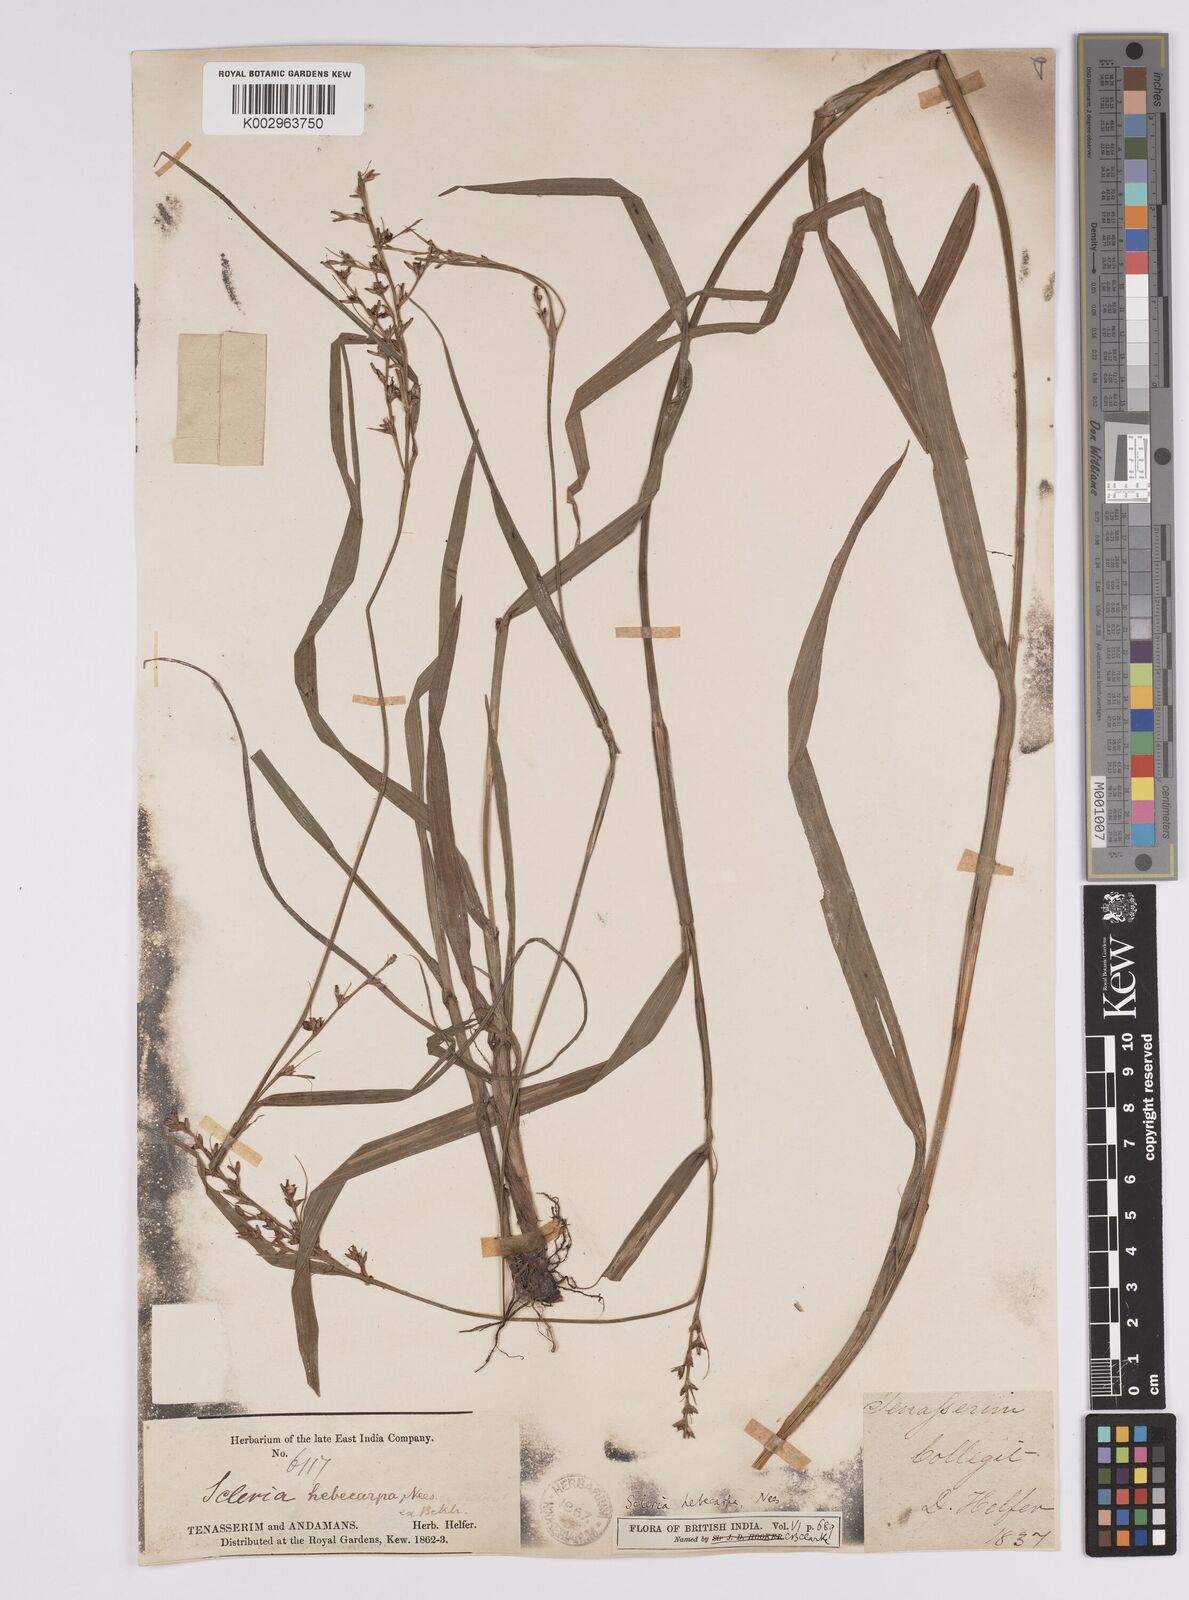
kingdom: Plantae
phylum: Tracheophyta
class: Liliopsida
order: Poales
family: Cyperaceae
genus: Scleria
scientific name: Scleria levis
